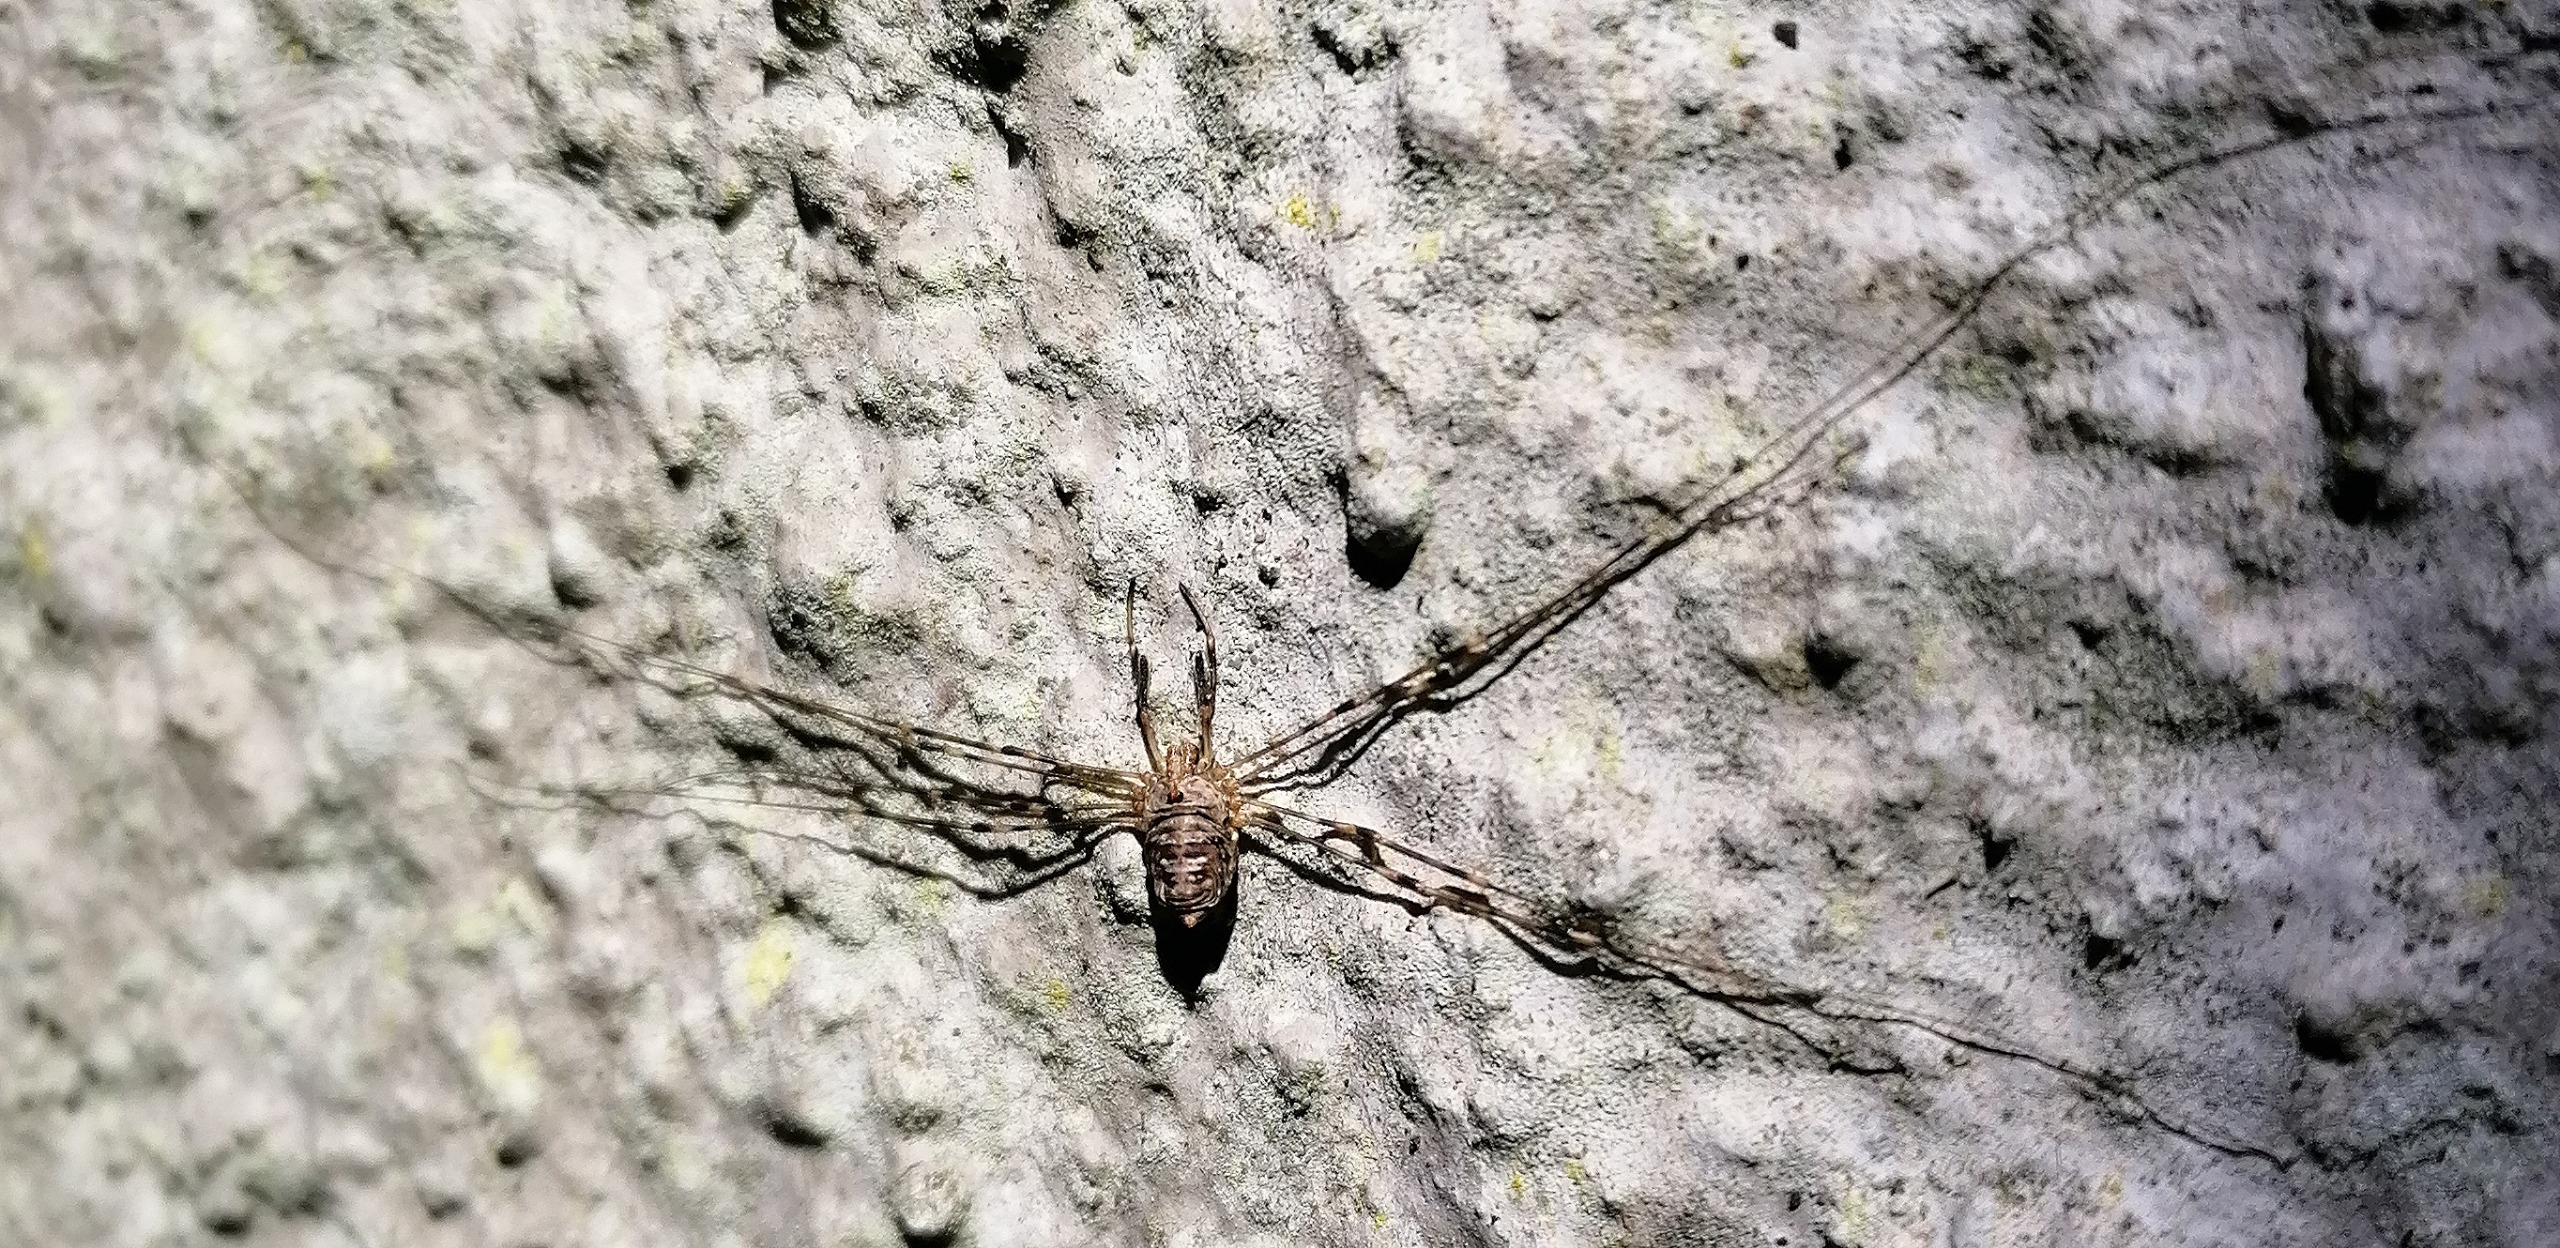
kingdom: Animalia
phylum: Arthropoda
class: Arachnida
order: Opiliones
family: Phalangiidae
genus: Dicranopalpus
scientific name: Dicranopalpus ramosus
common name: Gaffelmejer
